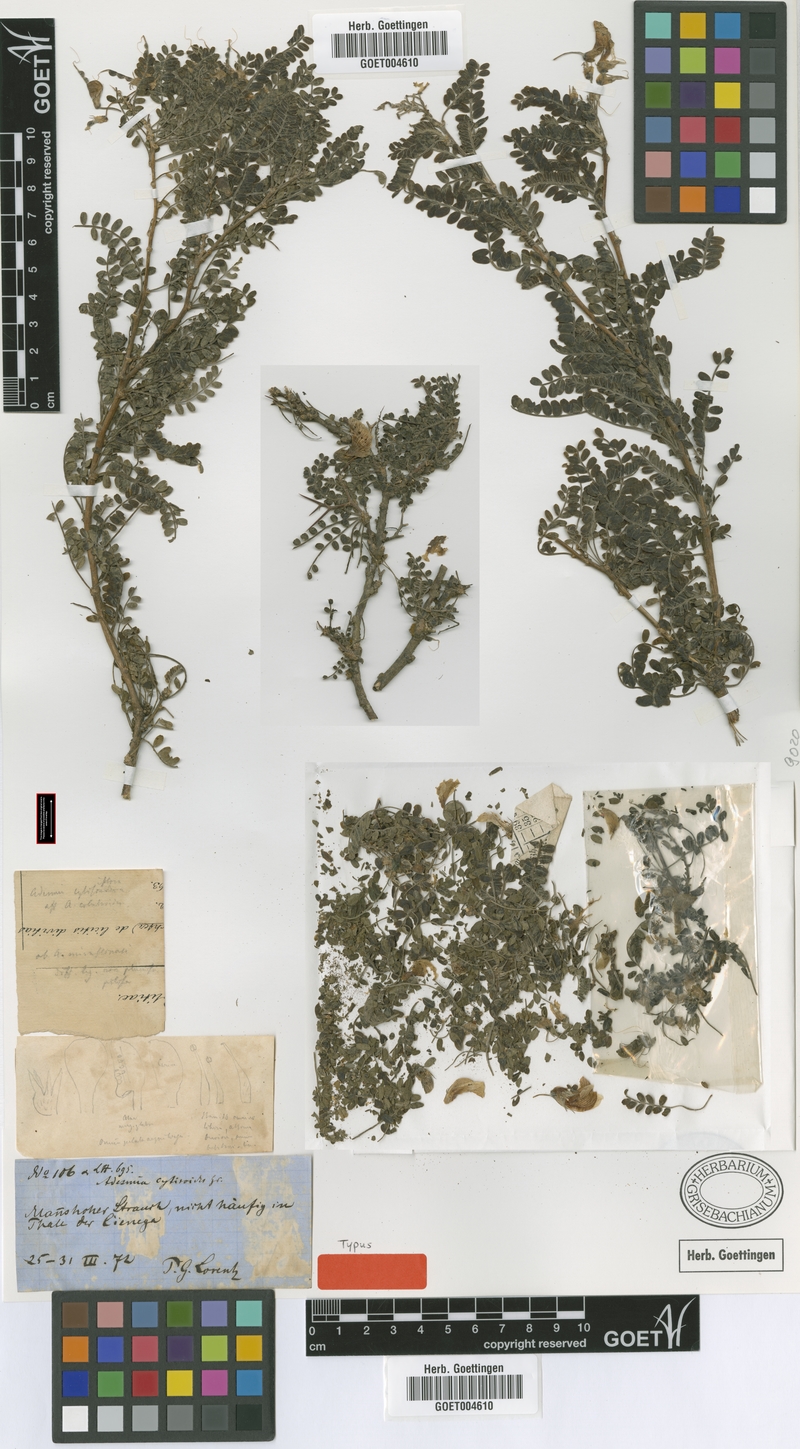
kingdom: Plantae
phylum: Tracheophyta
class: Magnoliopsida
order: Fabales
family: Fabaceae
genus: Adesmia
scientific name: Adesmia cytisoides
